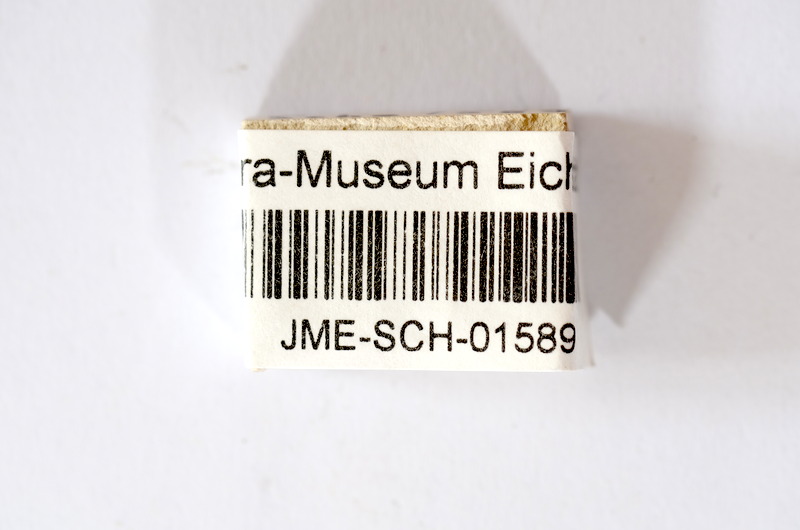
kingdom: Animalia
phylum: Chordata
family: Ascalaboidae
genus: Tharsis
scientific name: Tharsis dubius
